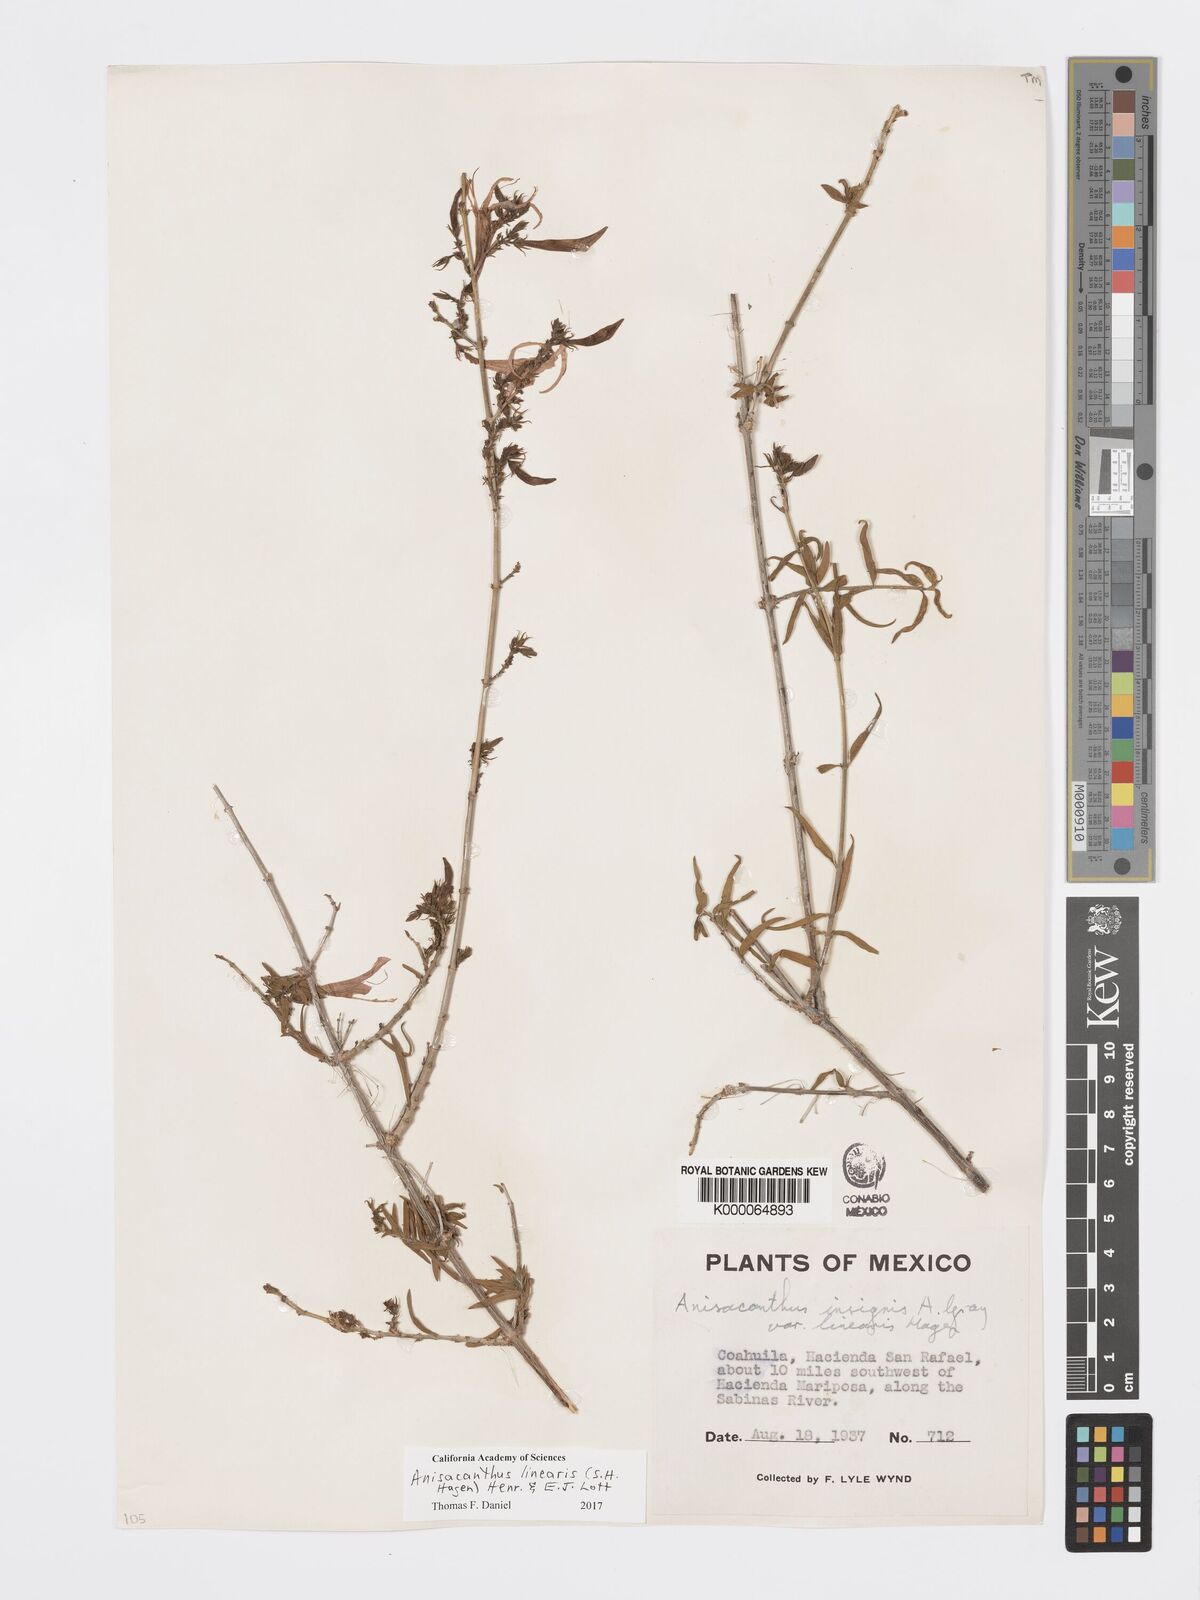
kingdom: Plantae
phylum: Tracheophyta
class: Magnoliopsida
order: Lamiales
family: Acanthaceae
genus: Anisacanthus
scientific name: Anisacanthus linearis
